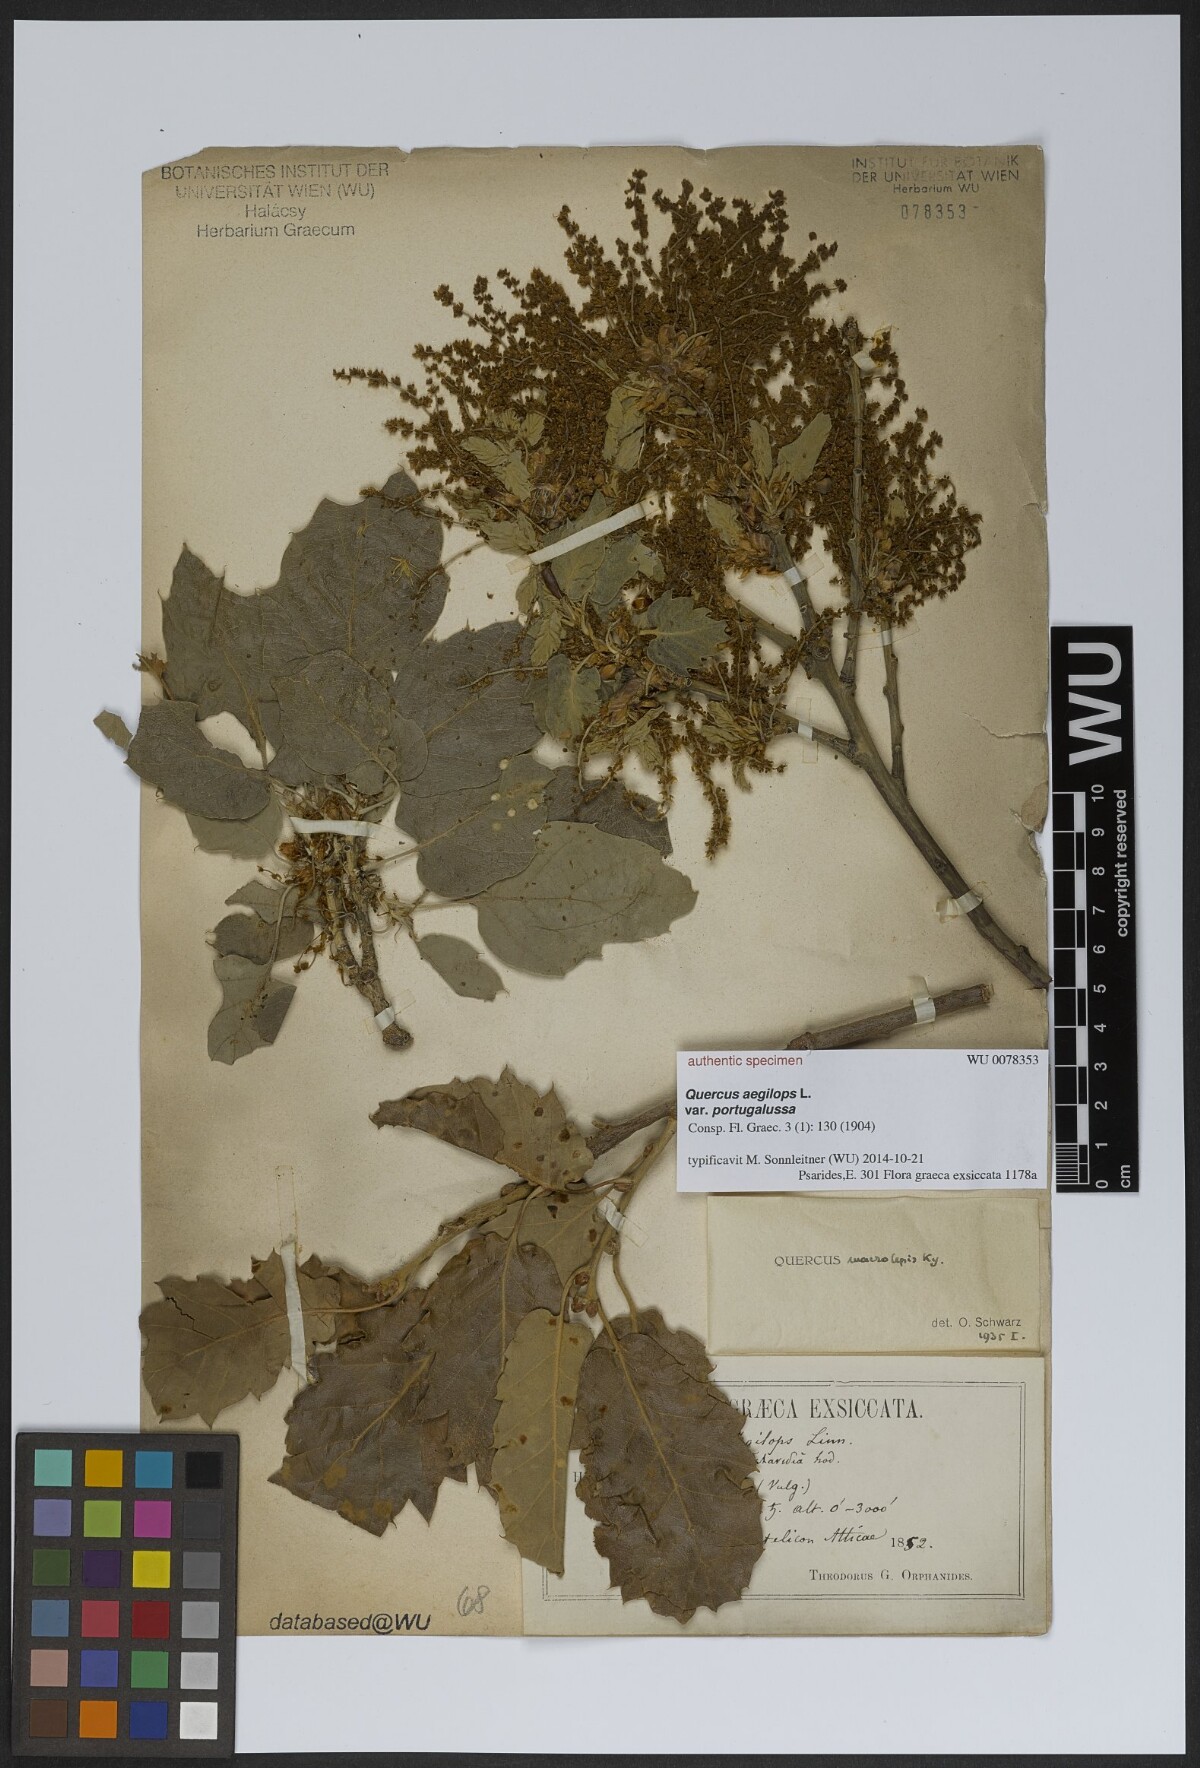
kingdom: Plantae
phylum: Tracheophyta
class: Magnoliopsida
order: Fagales
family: Fagaceae
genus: Quercus
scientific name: Quercus
